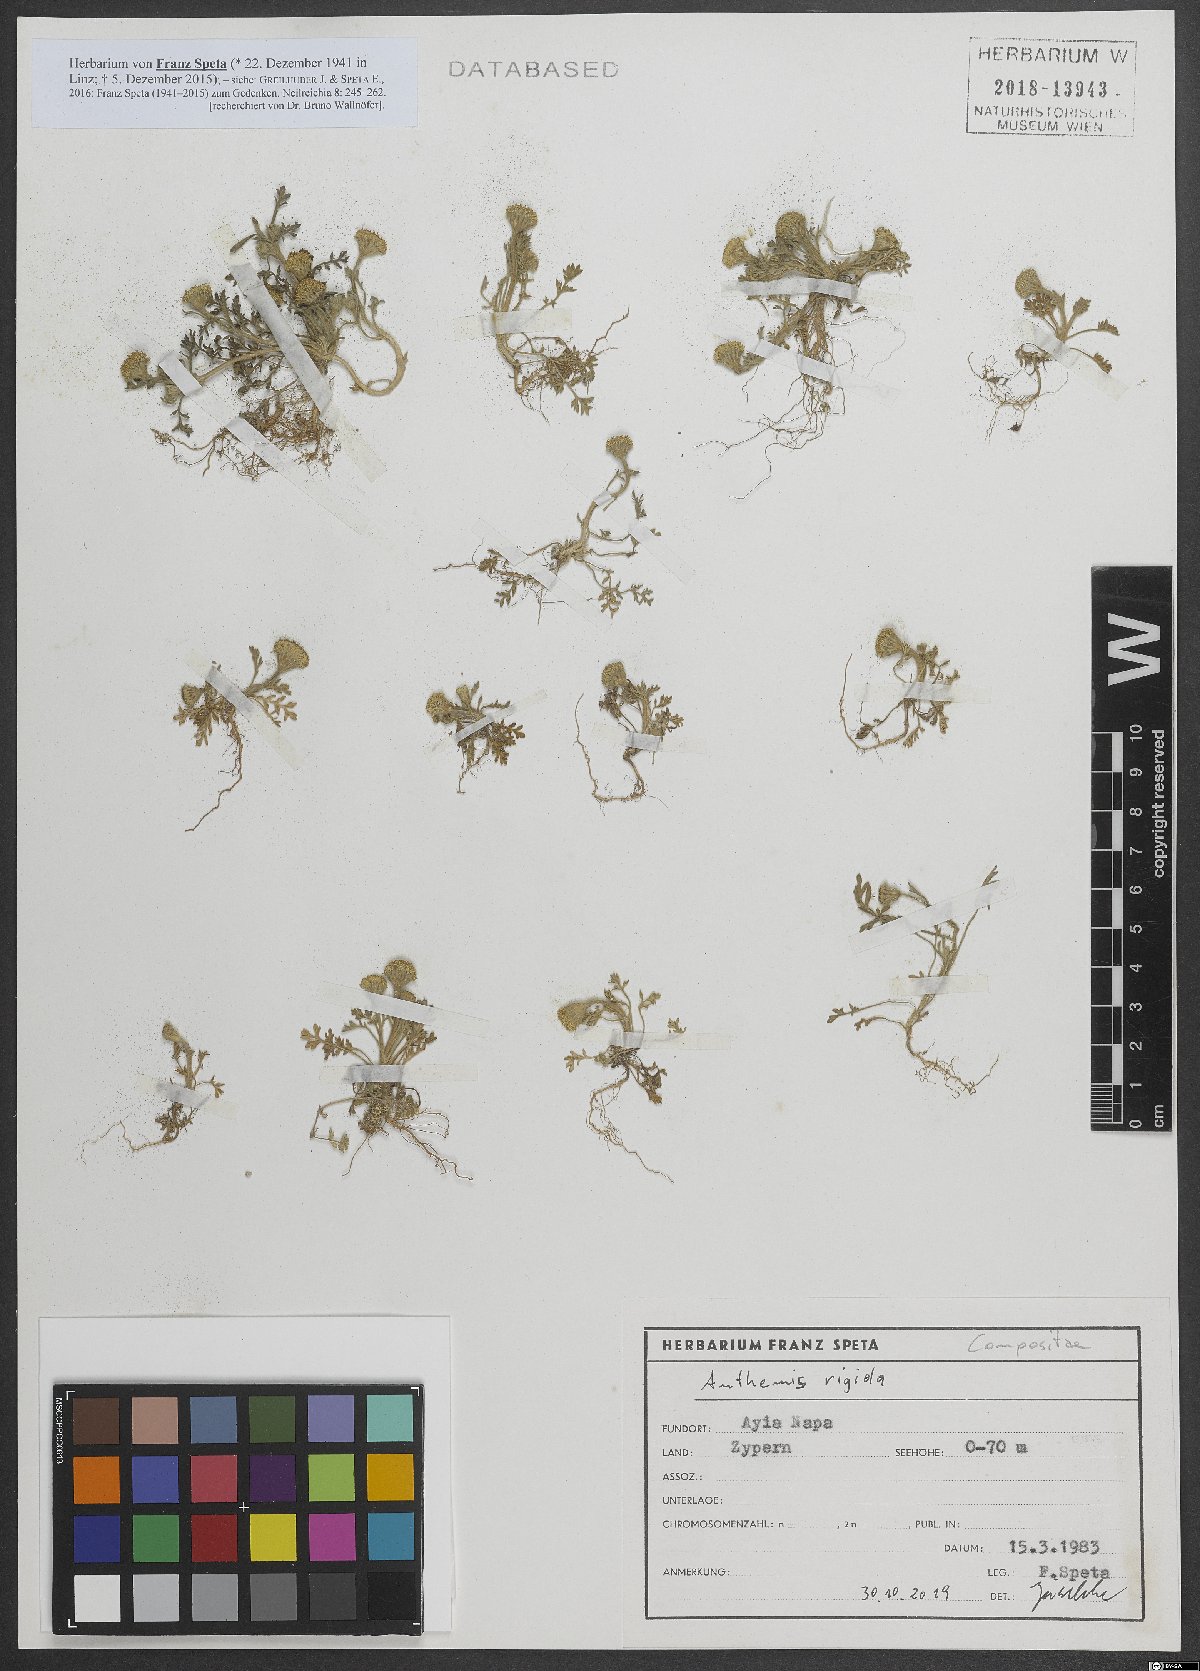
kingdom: Plantae
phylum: Tracheophyta
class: Magnoliopsida
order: Asterales
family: Asteraceae
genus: Anthemis
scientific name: Anthemis rigida
